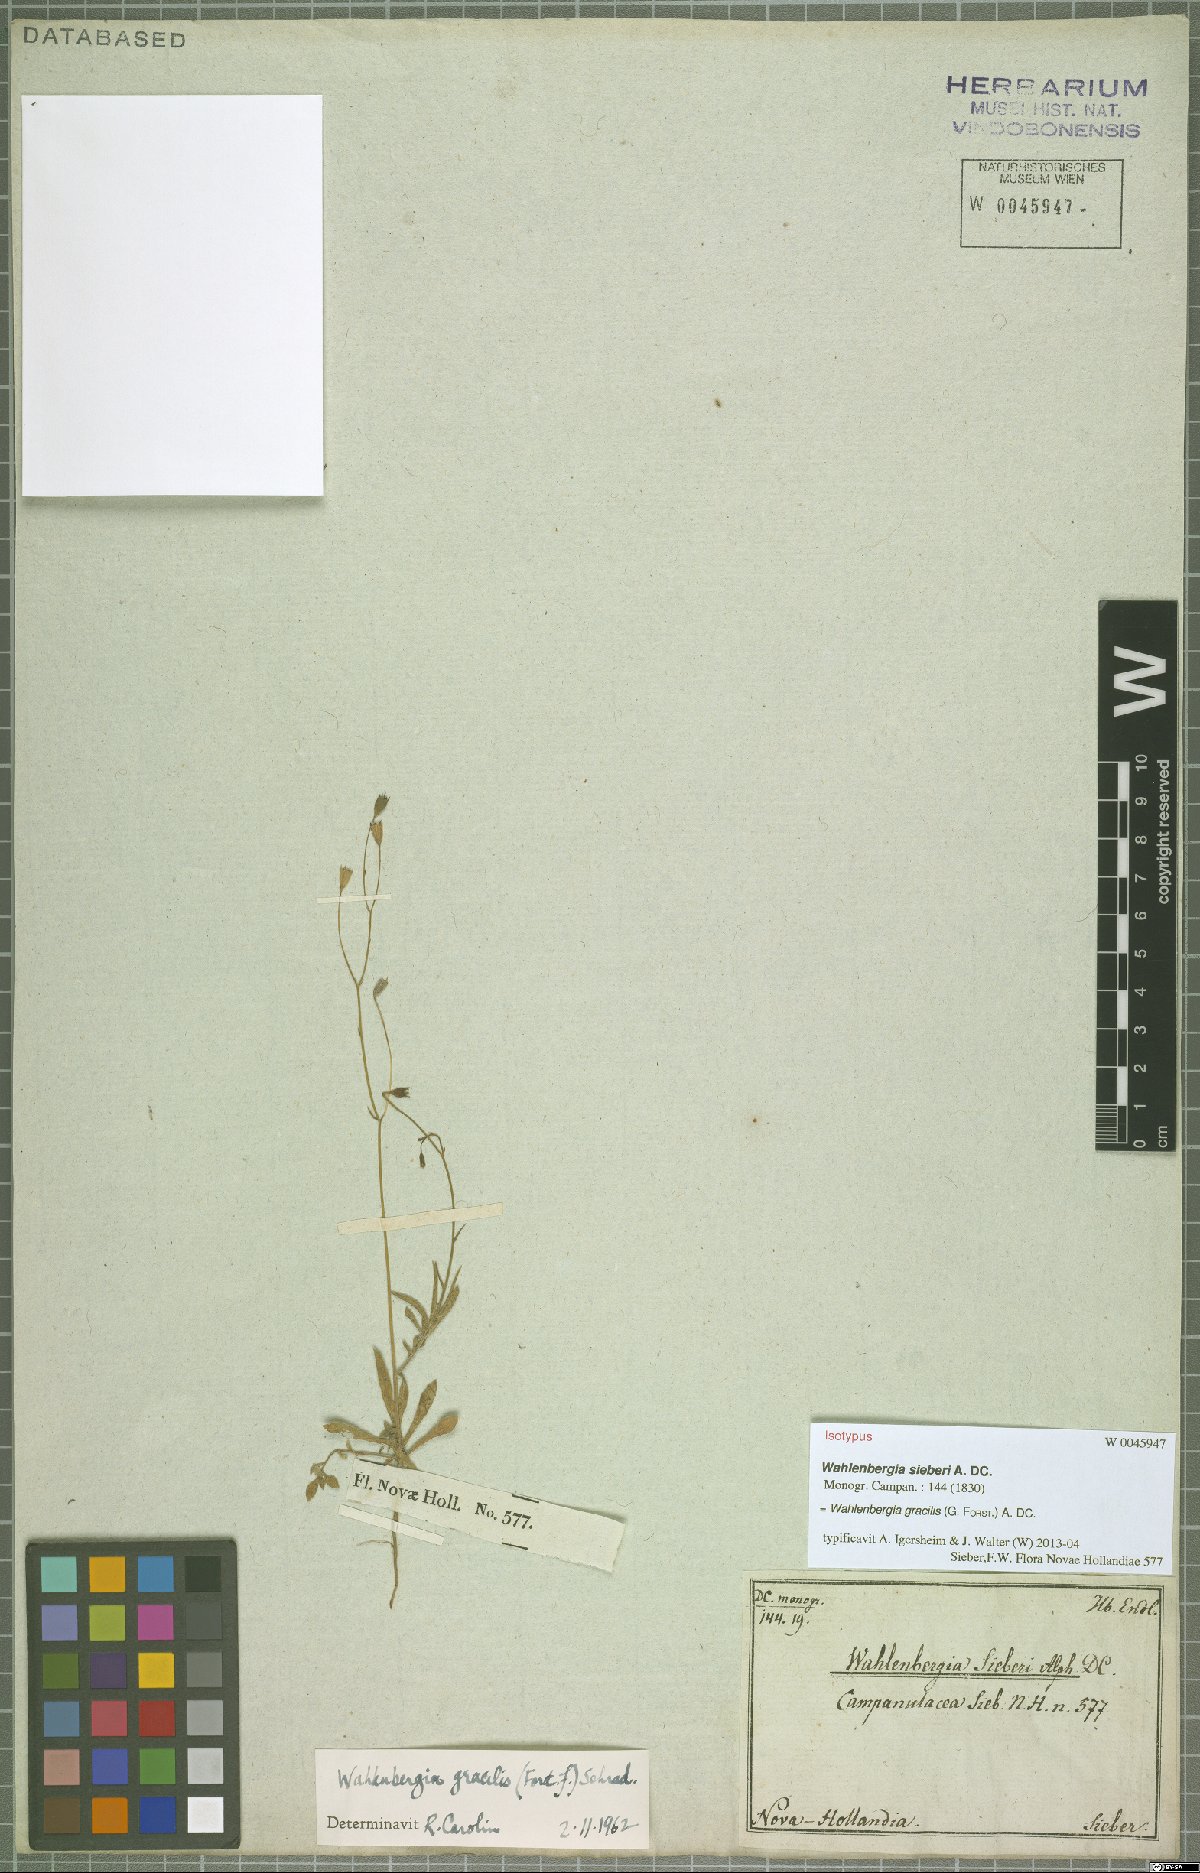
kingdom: Plantae
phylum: Tracheophyta
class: Magnoliopsida
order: Asterales
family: Campanulaceae
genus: Wahlenbergia
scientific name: Wahlenbergia gracilis
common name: Harebell
